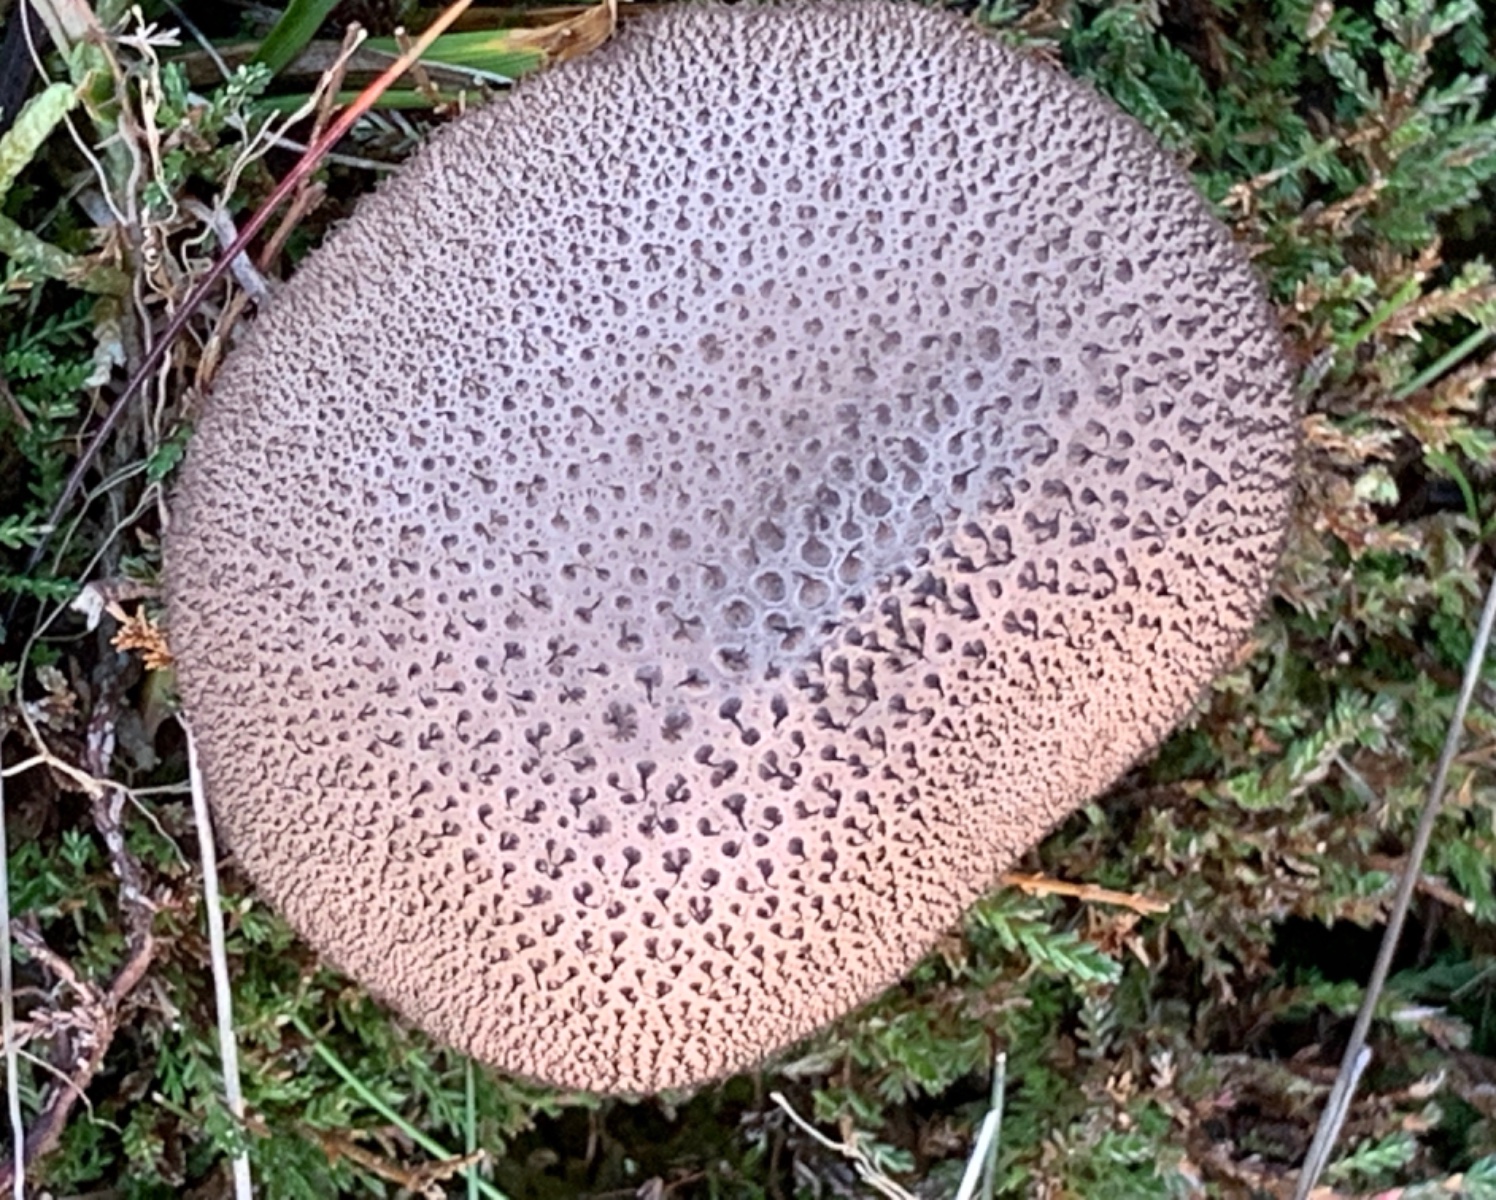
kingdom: Fungi
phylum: Basidiomycota
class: Agaricomycetes
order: Agaricales
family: Lycoperdaceae
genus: Lycoperdon
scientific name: Lycoperdon nigrescens
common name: sortagtig støvbold
